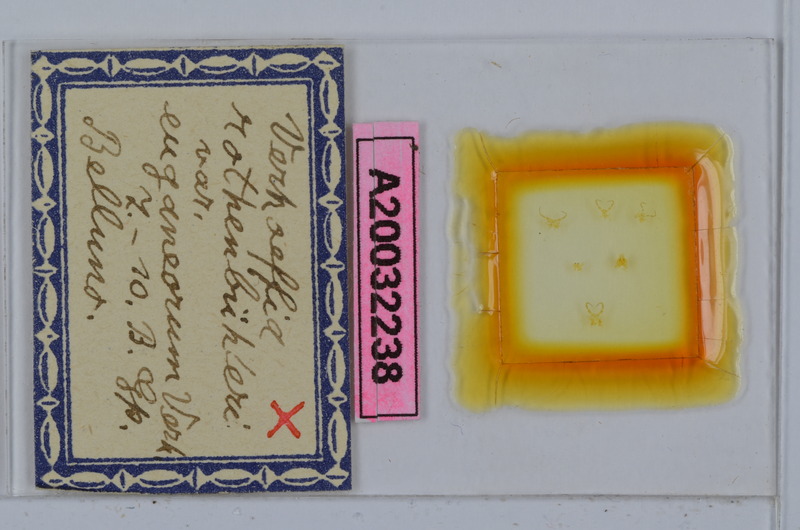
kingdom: Animalia
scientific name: Animalia
